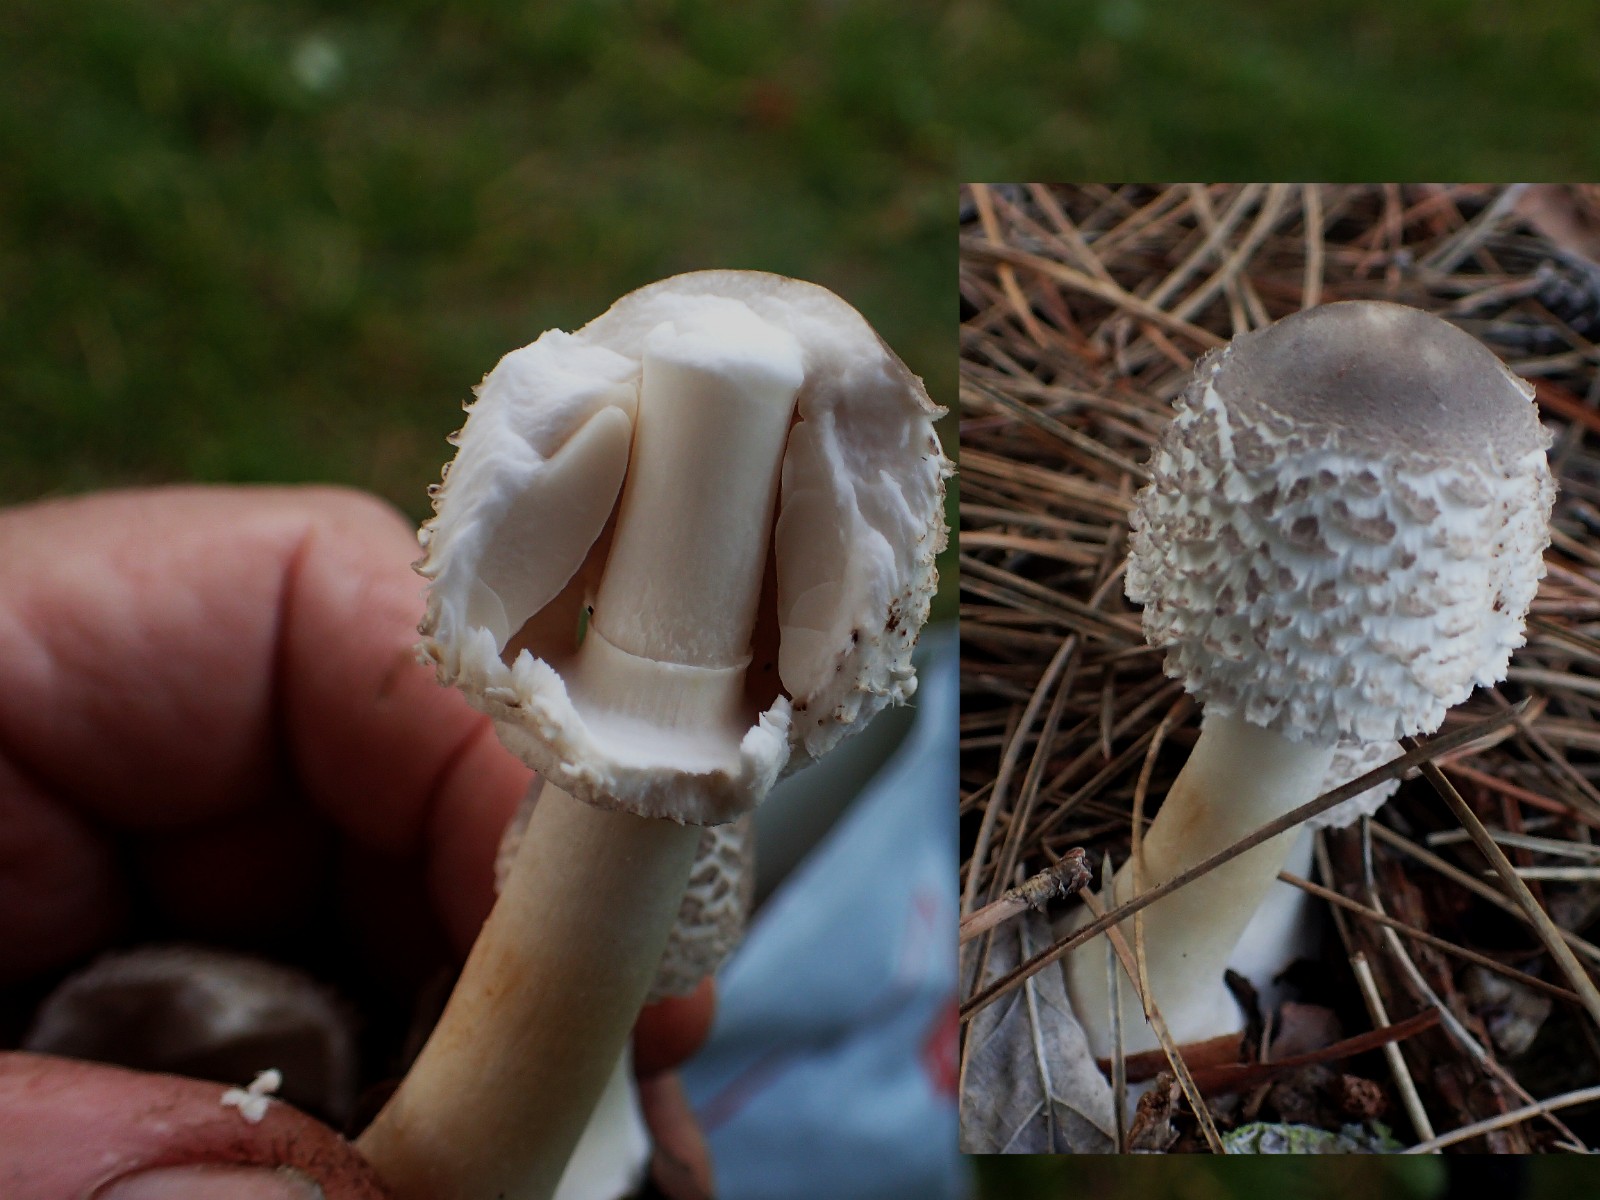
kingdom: Fungi
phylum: Basidiomycota
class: Agaricomycetes
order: Agaricales
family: Agaricaceae
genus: Leucoagaricus
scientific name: Leucoagaricus nympharum
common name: gran-silkehat
